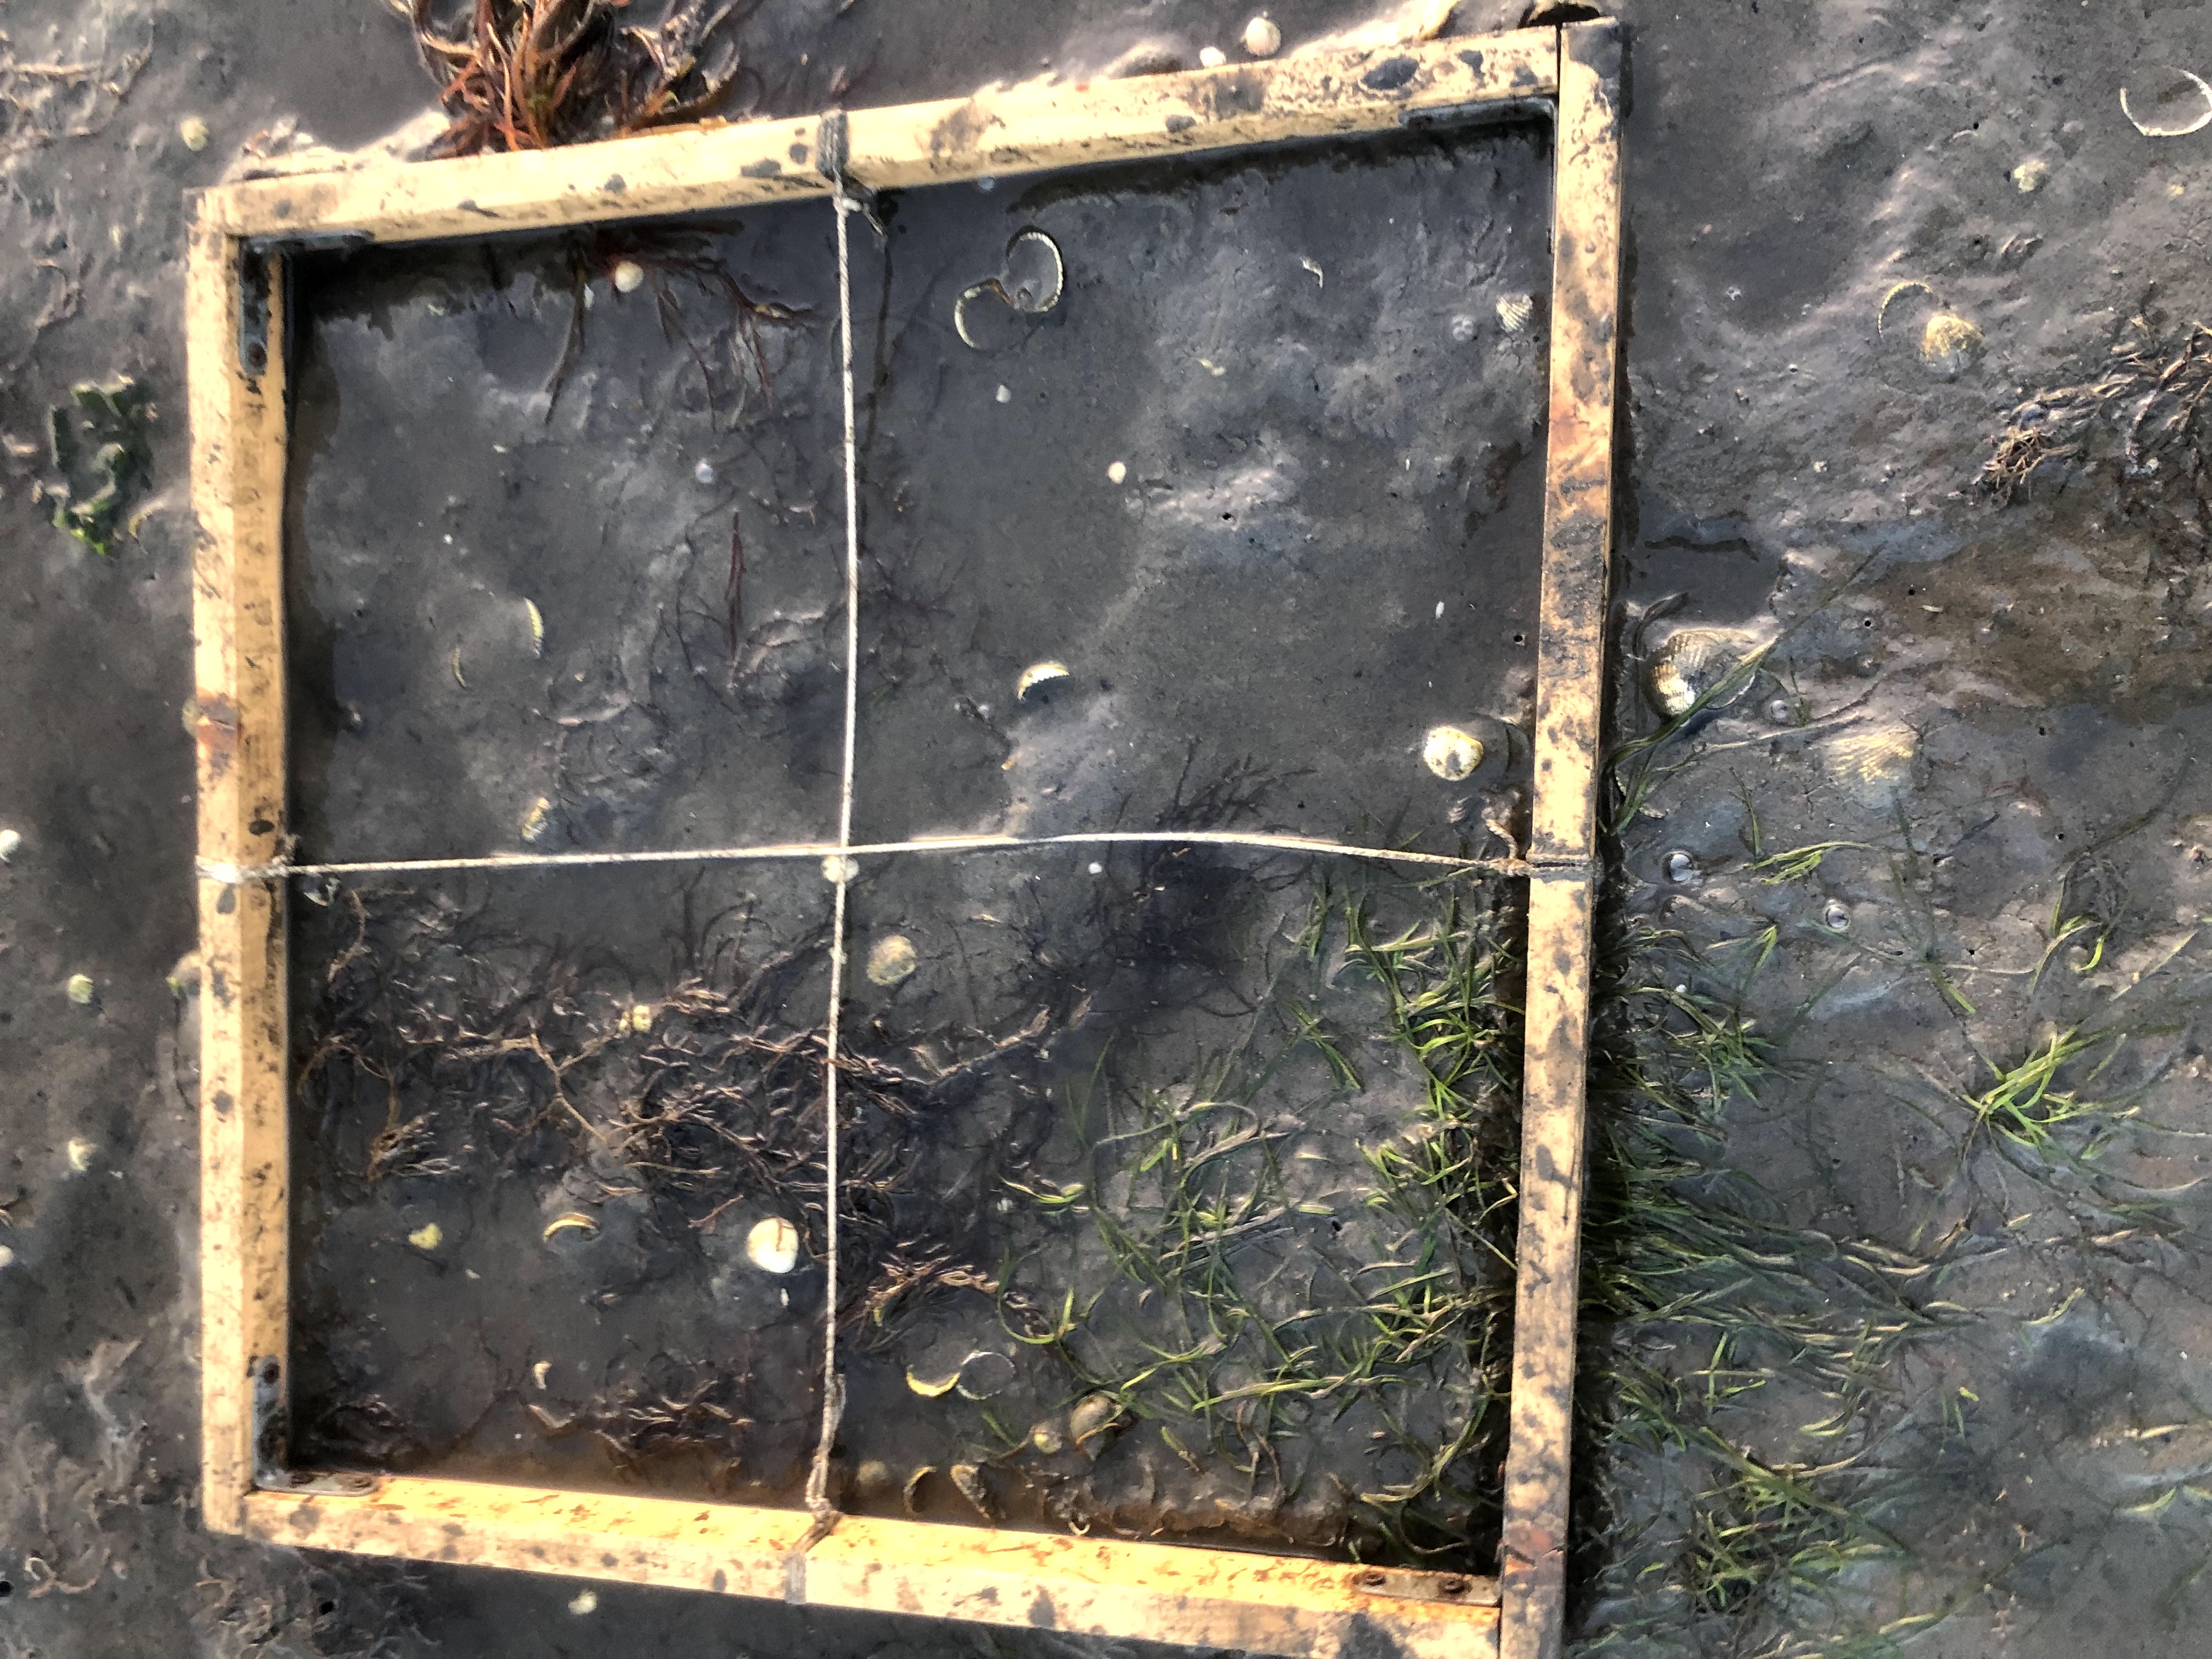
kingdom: Plantae
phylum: Rhodophyta
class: Florideophyceae
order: Gracilariales
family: Gracilariaceae
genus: Gracilaria
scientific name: Gracilaria vermiculophylla
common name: Algae
